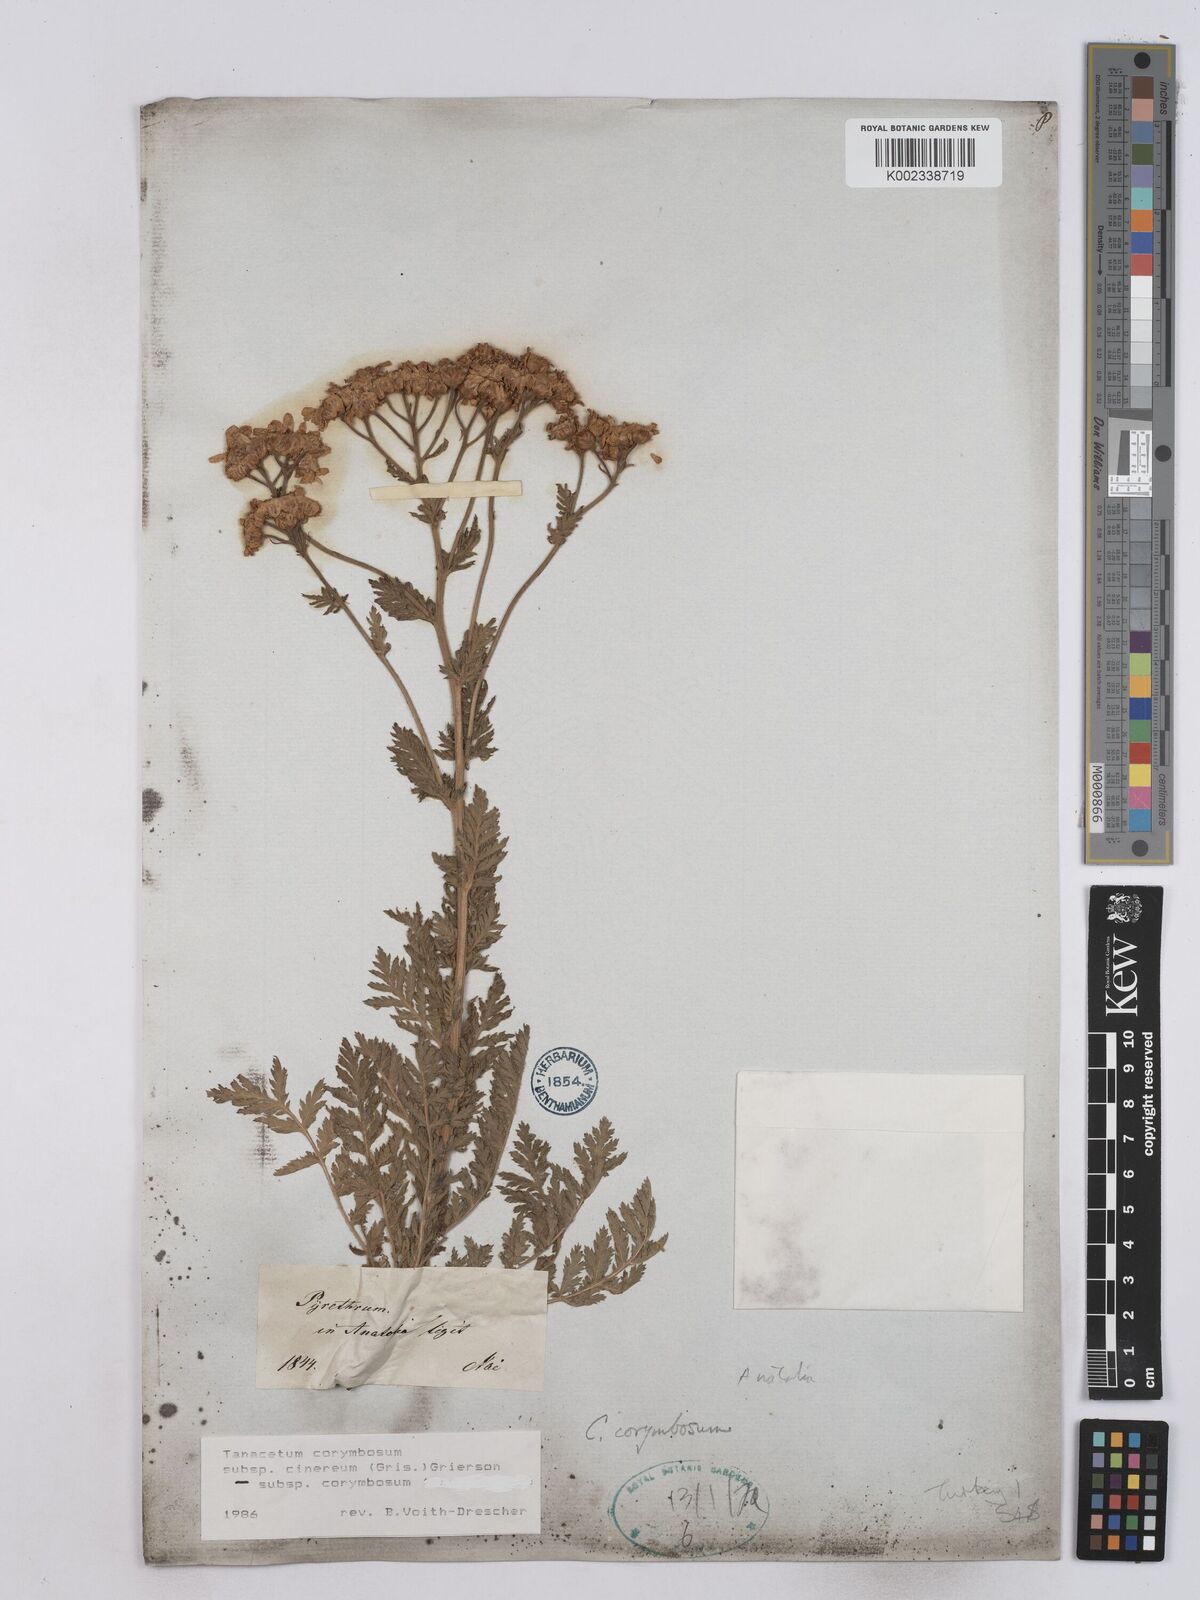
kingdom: Plantae
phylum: Tracheophyta
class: Magnoliopsida
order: Asterales
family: Asteraceae
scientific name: Asteraceae
